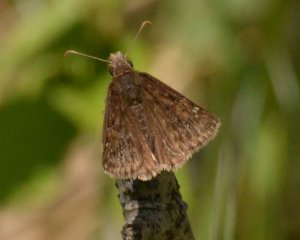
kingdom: Animalia
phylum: Arthropoda
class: Insecta
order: Lepidoptera
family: Hesperiidae
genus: Gesta
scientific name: Gesta
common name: Juvenal's Duskywing
